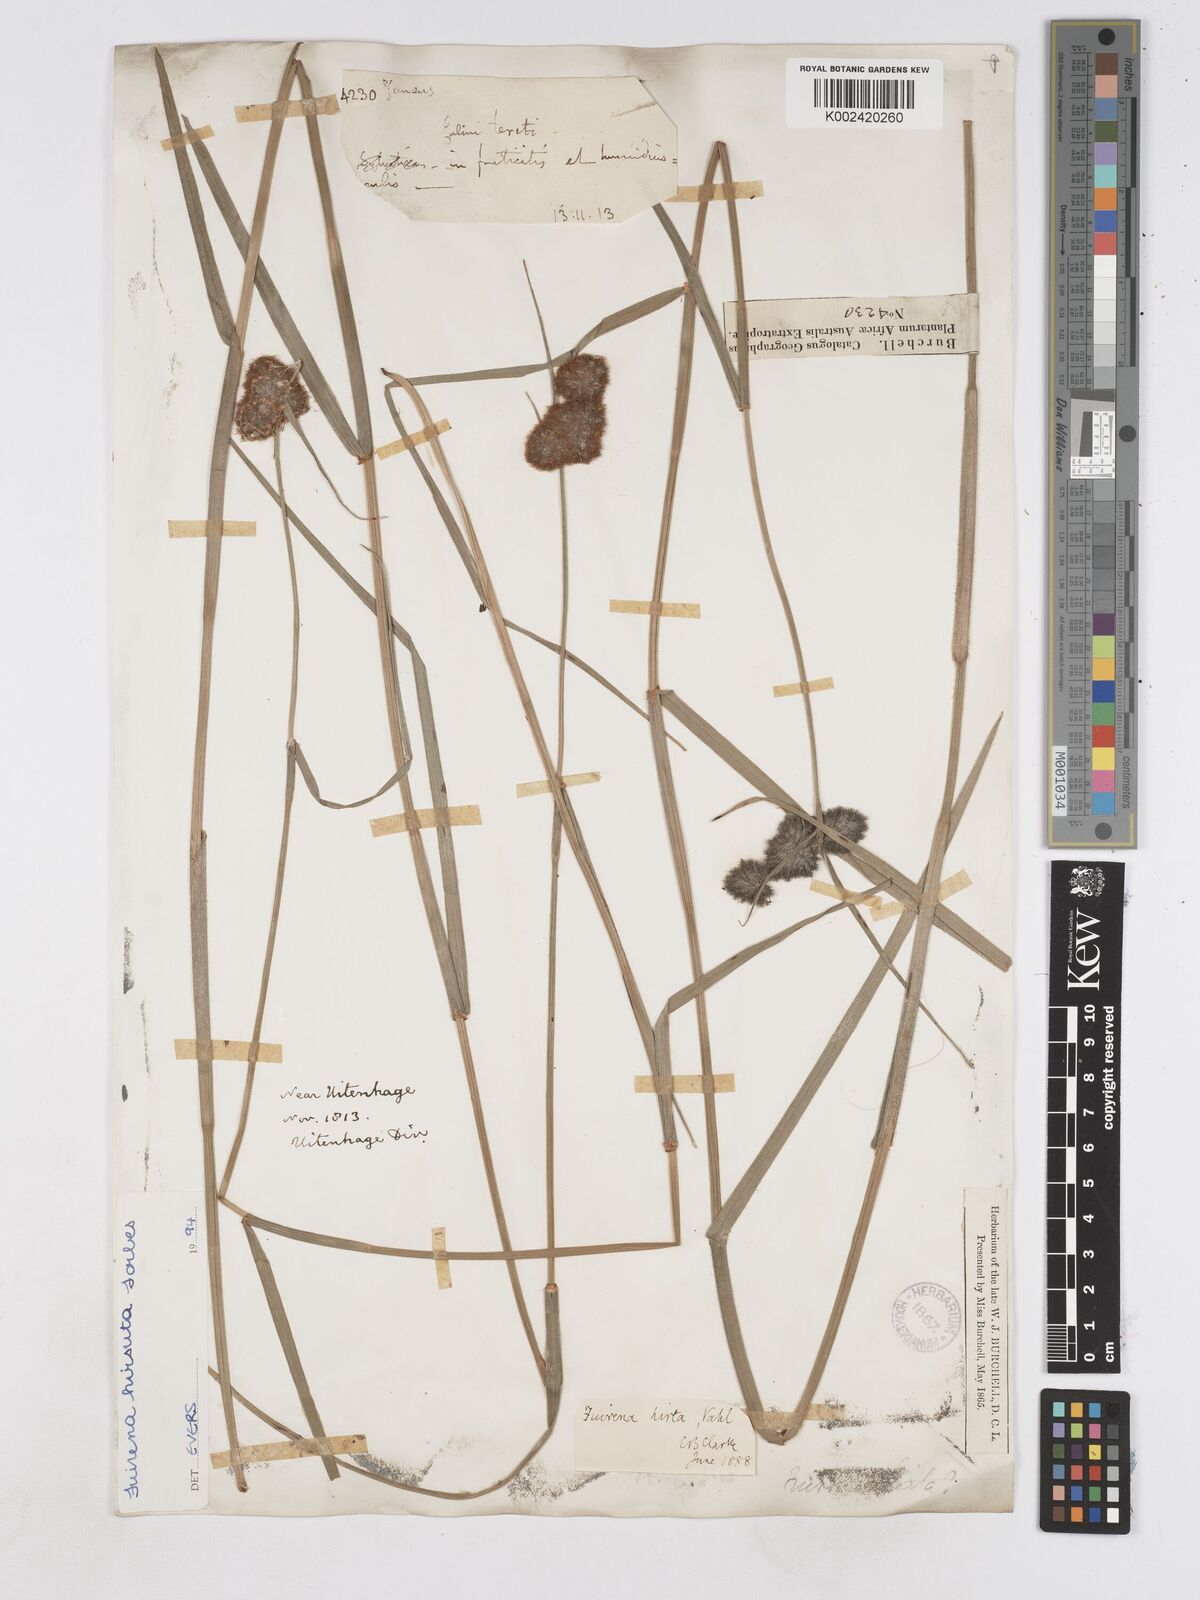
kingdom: Plantae
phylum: Tracheophyta
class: Liliopsida
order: Poales
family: Cyperaceae
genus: Fuirena
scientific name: Fuirena hirsuta
